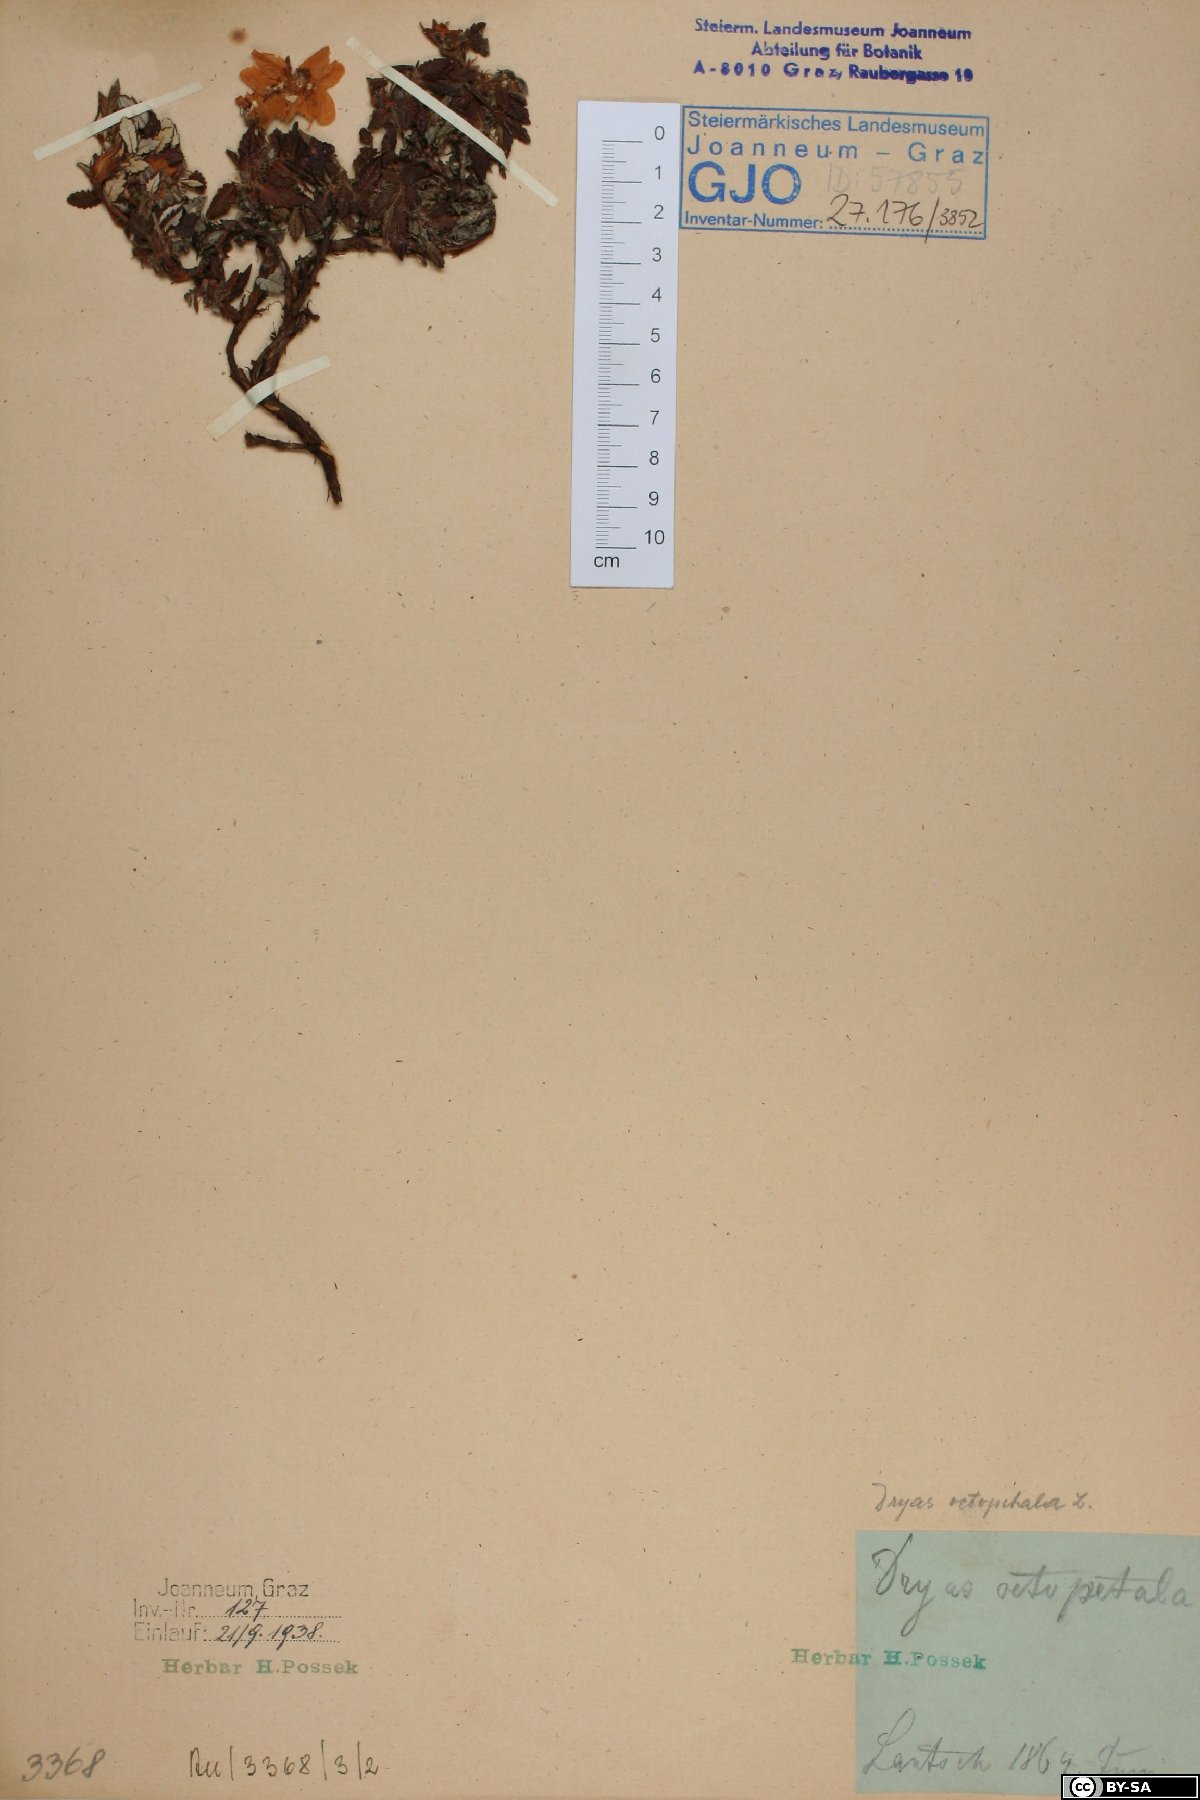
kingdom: Plantae
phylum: Tracheophyta
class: Magnoliopsida
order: Rosales
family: Rosaceae
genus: Dryas
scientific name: Dryas octopetala
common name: Eight-petal mountain-avens
